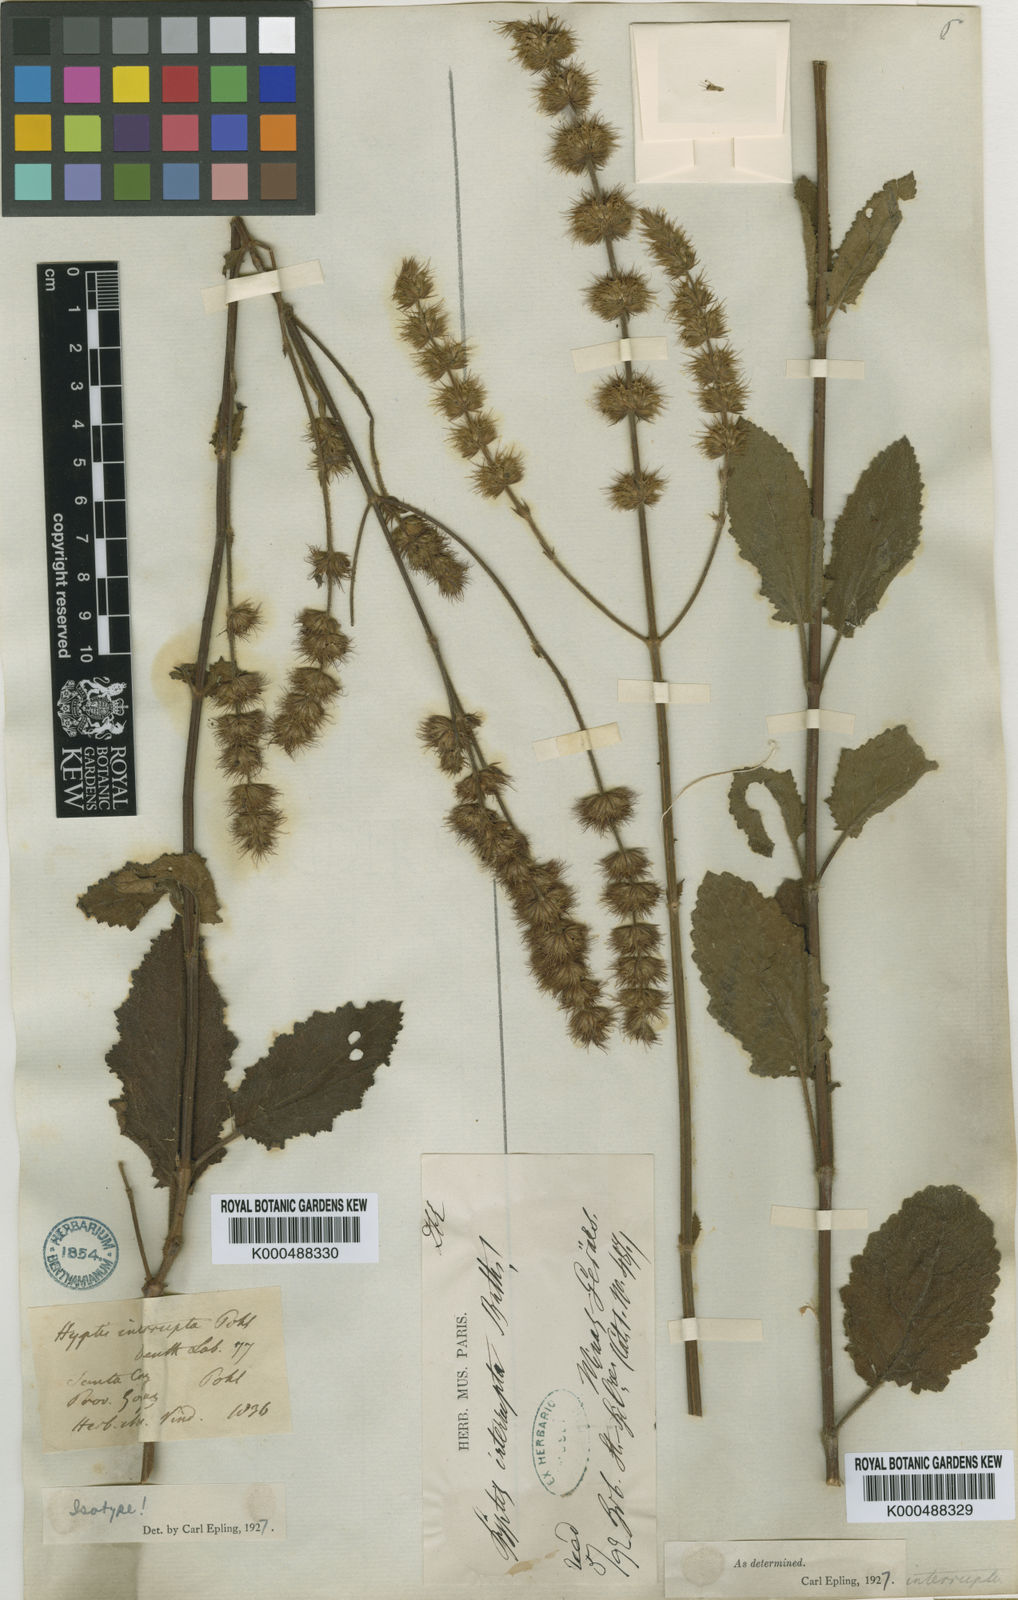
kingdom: Plantae
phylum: Tracheophyta
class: Magnoliopsida
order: Lamiales
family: Lamiaceae
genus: Gymneia
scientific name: Gymneia interrupta
